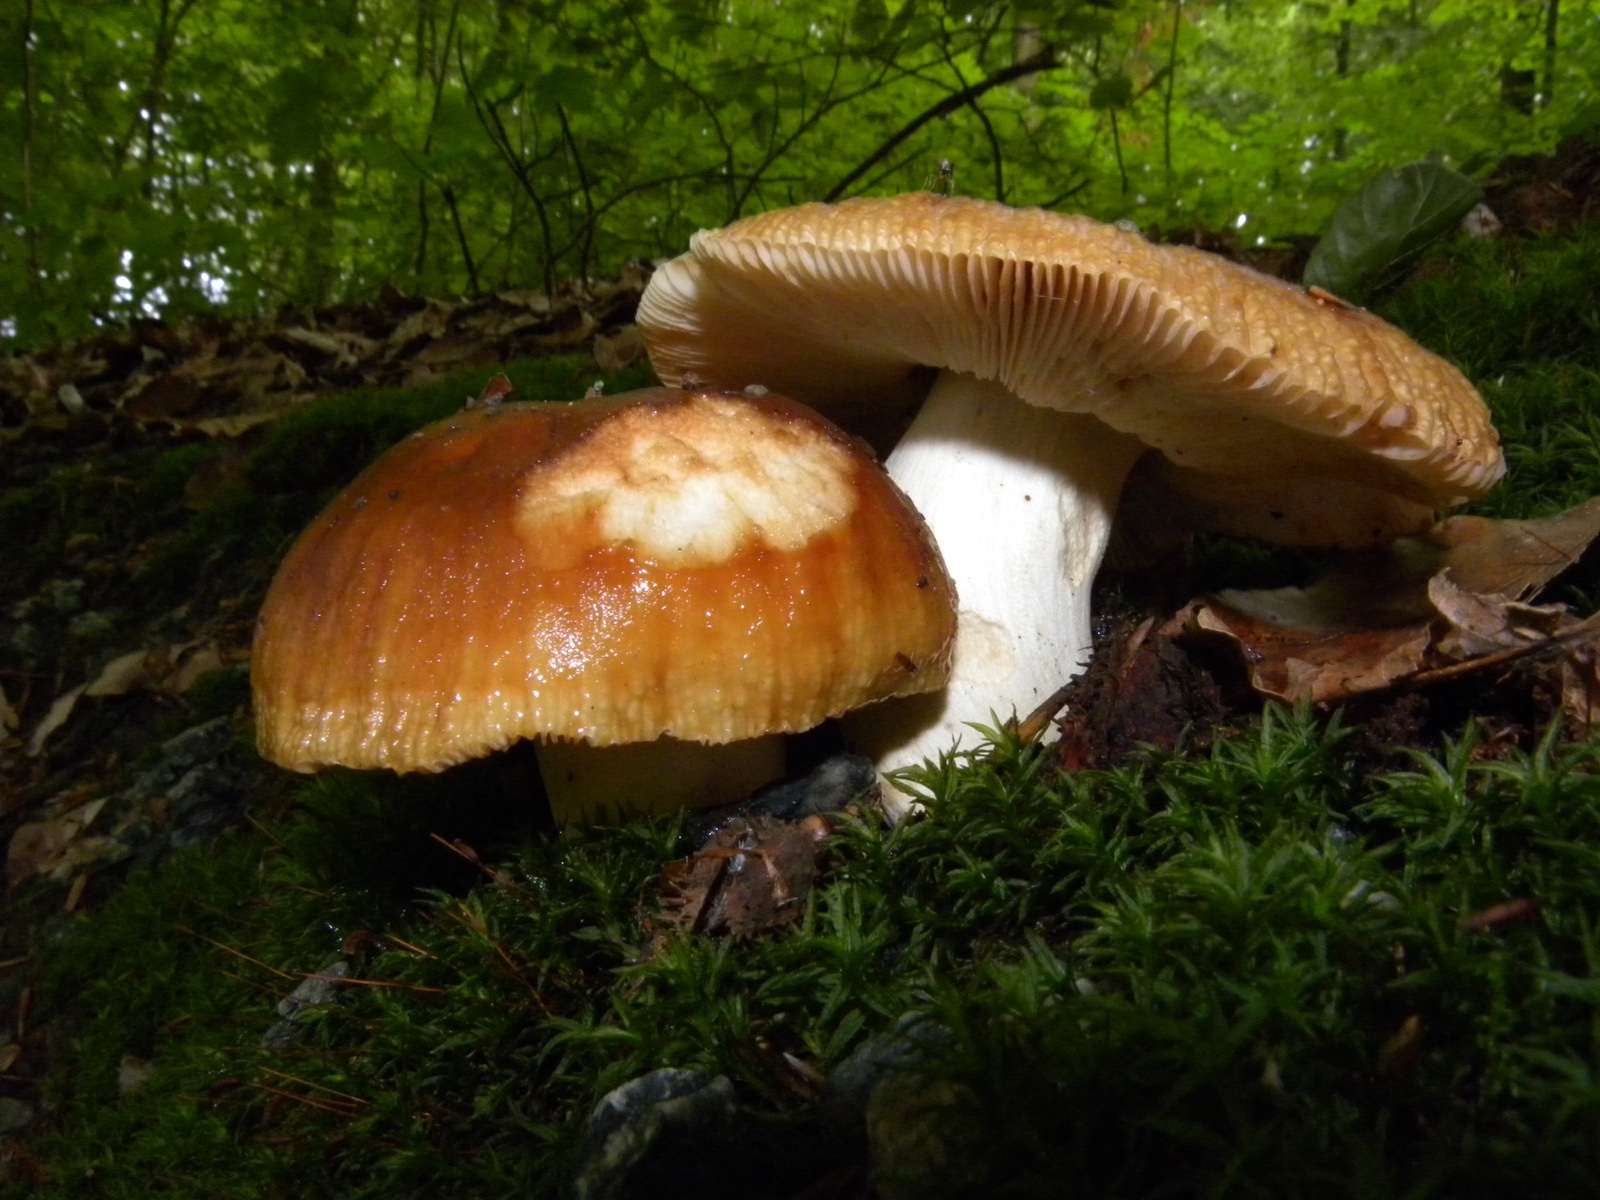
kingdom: Fungi
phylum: Basidiomycota
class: Agaricomycetes
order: Russulales
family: Russulaceae
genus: Russula
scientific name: Russula
